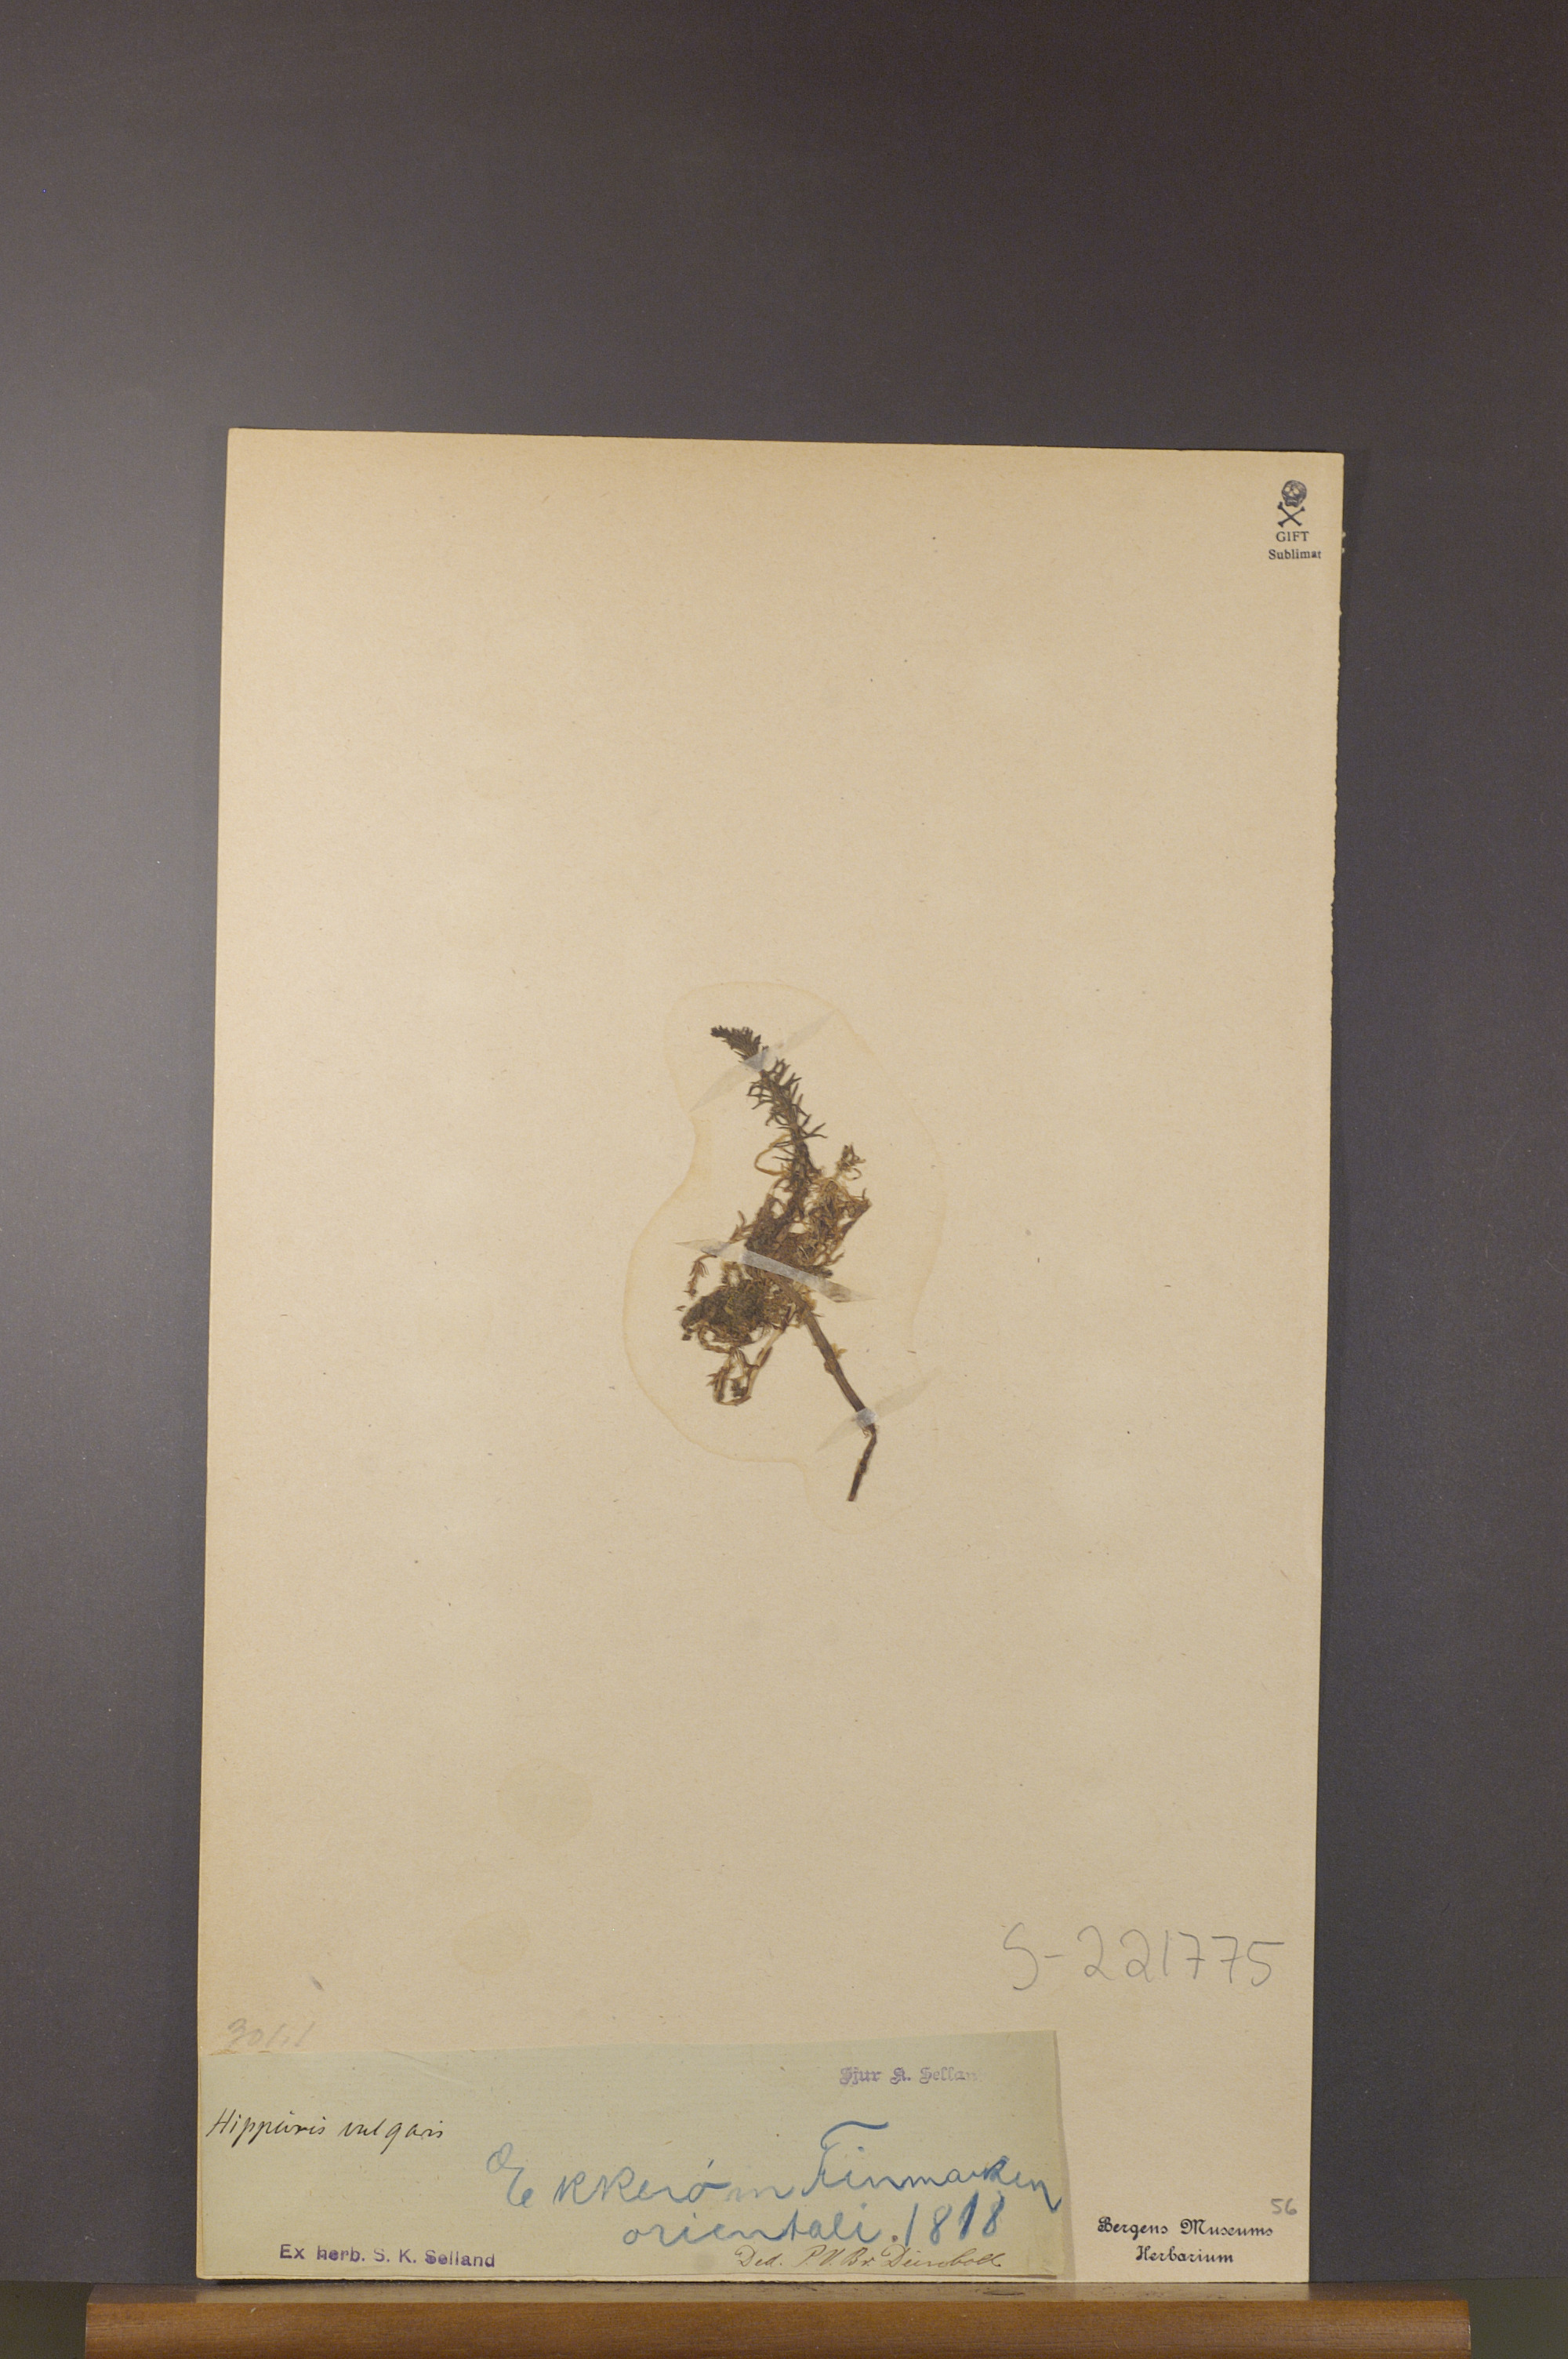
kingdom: Plantae
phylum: Tracheophyta
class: Magnoliopsida
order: Lamiales
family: Plantaginaceae
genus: Hippuris
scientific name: Hippuris vulgaris
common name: Mare's-tail
